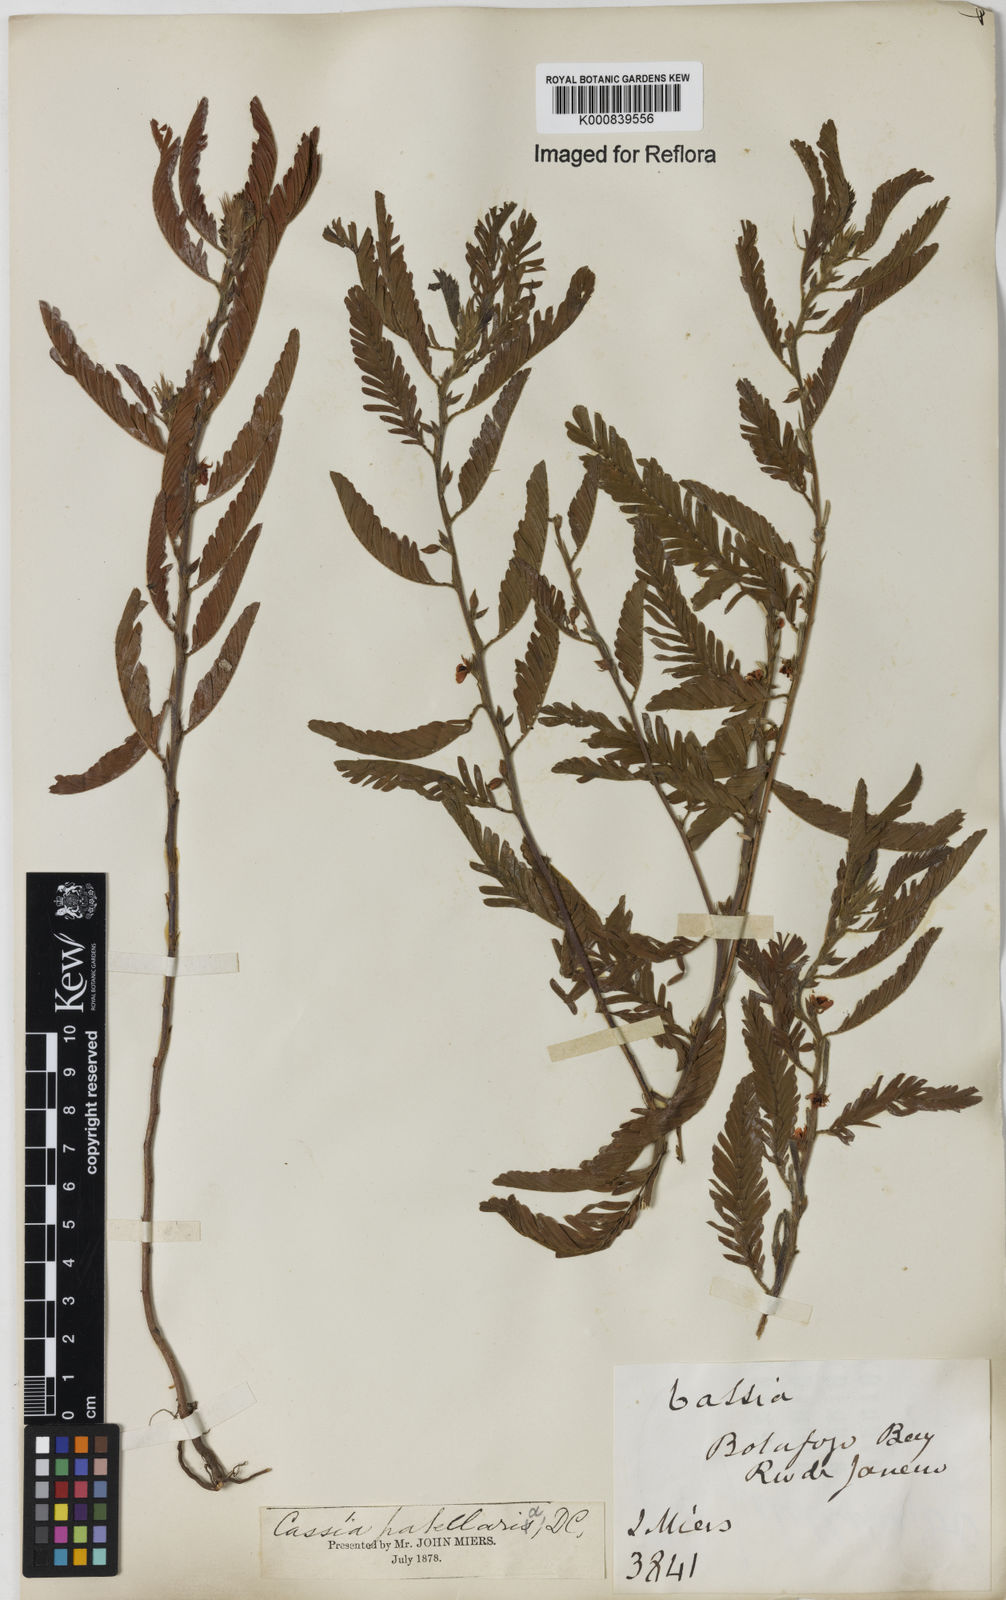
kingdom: Plantae
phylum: Tracheophyta
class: Magnoliopsida
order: Fabales
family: Fabaceae
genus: Chamaecrista
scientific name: Chamaecrista nictitans
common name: Sensitive cassia
